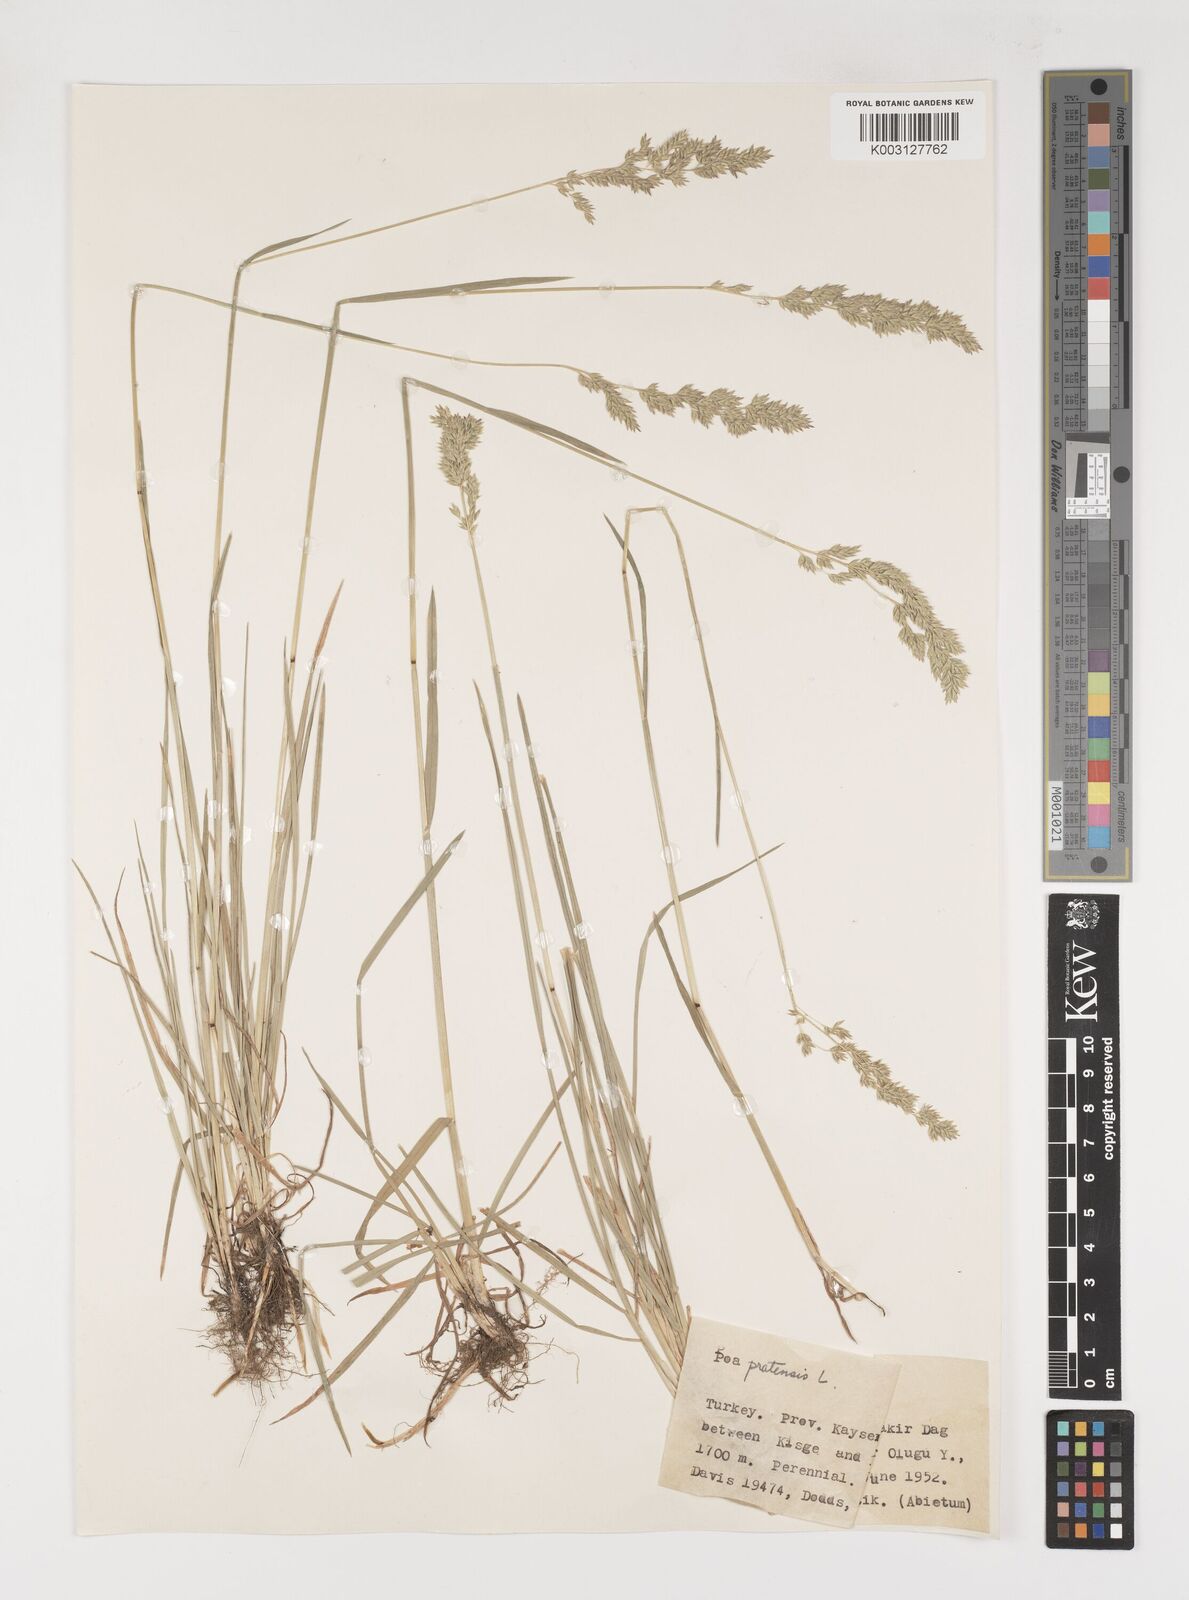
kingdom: Plantae
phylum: Tracheophyta
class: Liliopsida
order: Poales
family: Poaceae
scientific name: Poaceae
